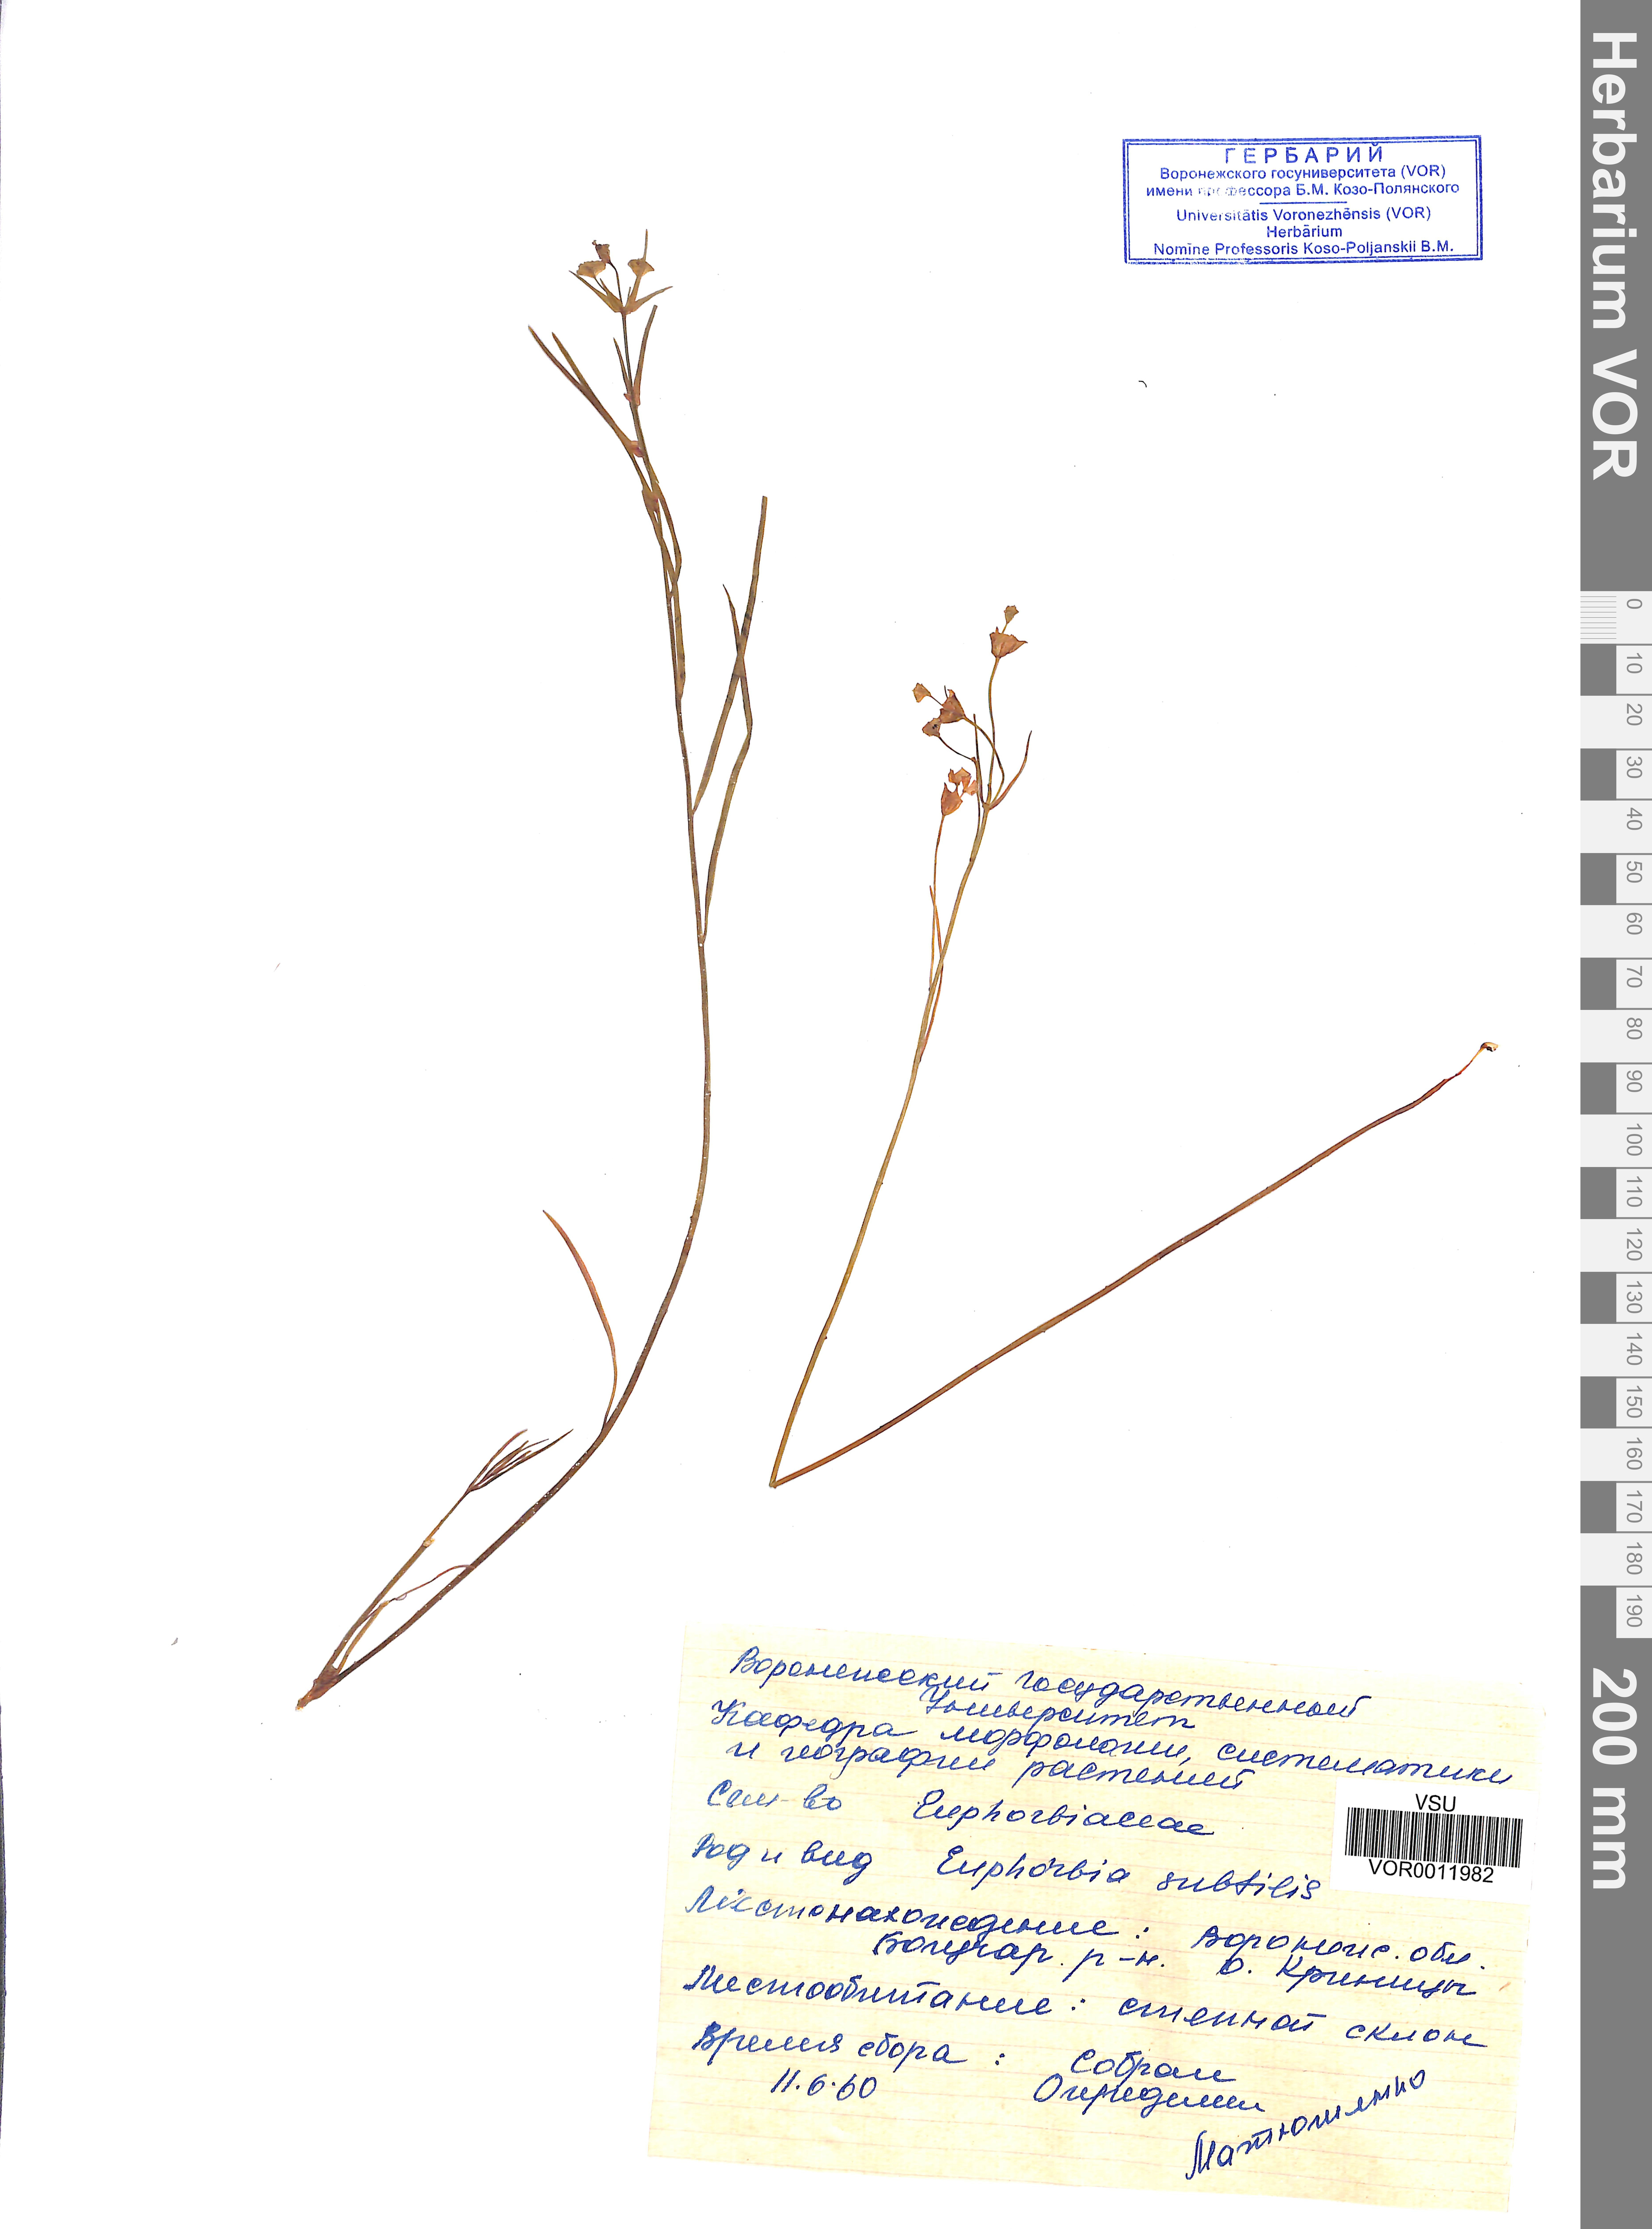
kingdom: Plantae
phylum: Tracheophyta
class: Magnoliopsida
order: Malpighiales
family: Euphorbiaceae
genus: Euphorbia
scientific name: Euphorbia microcarpa
